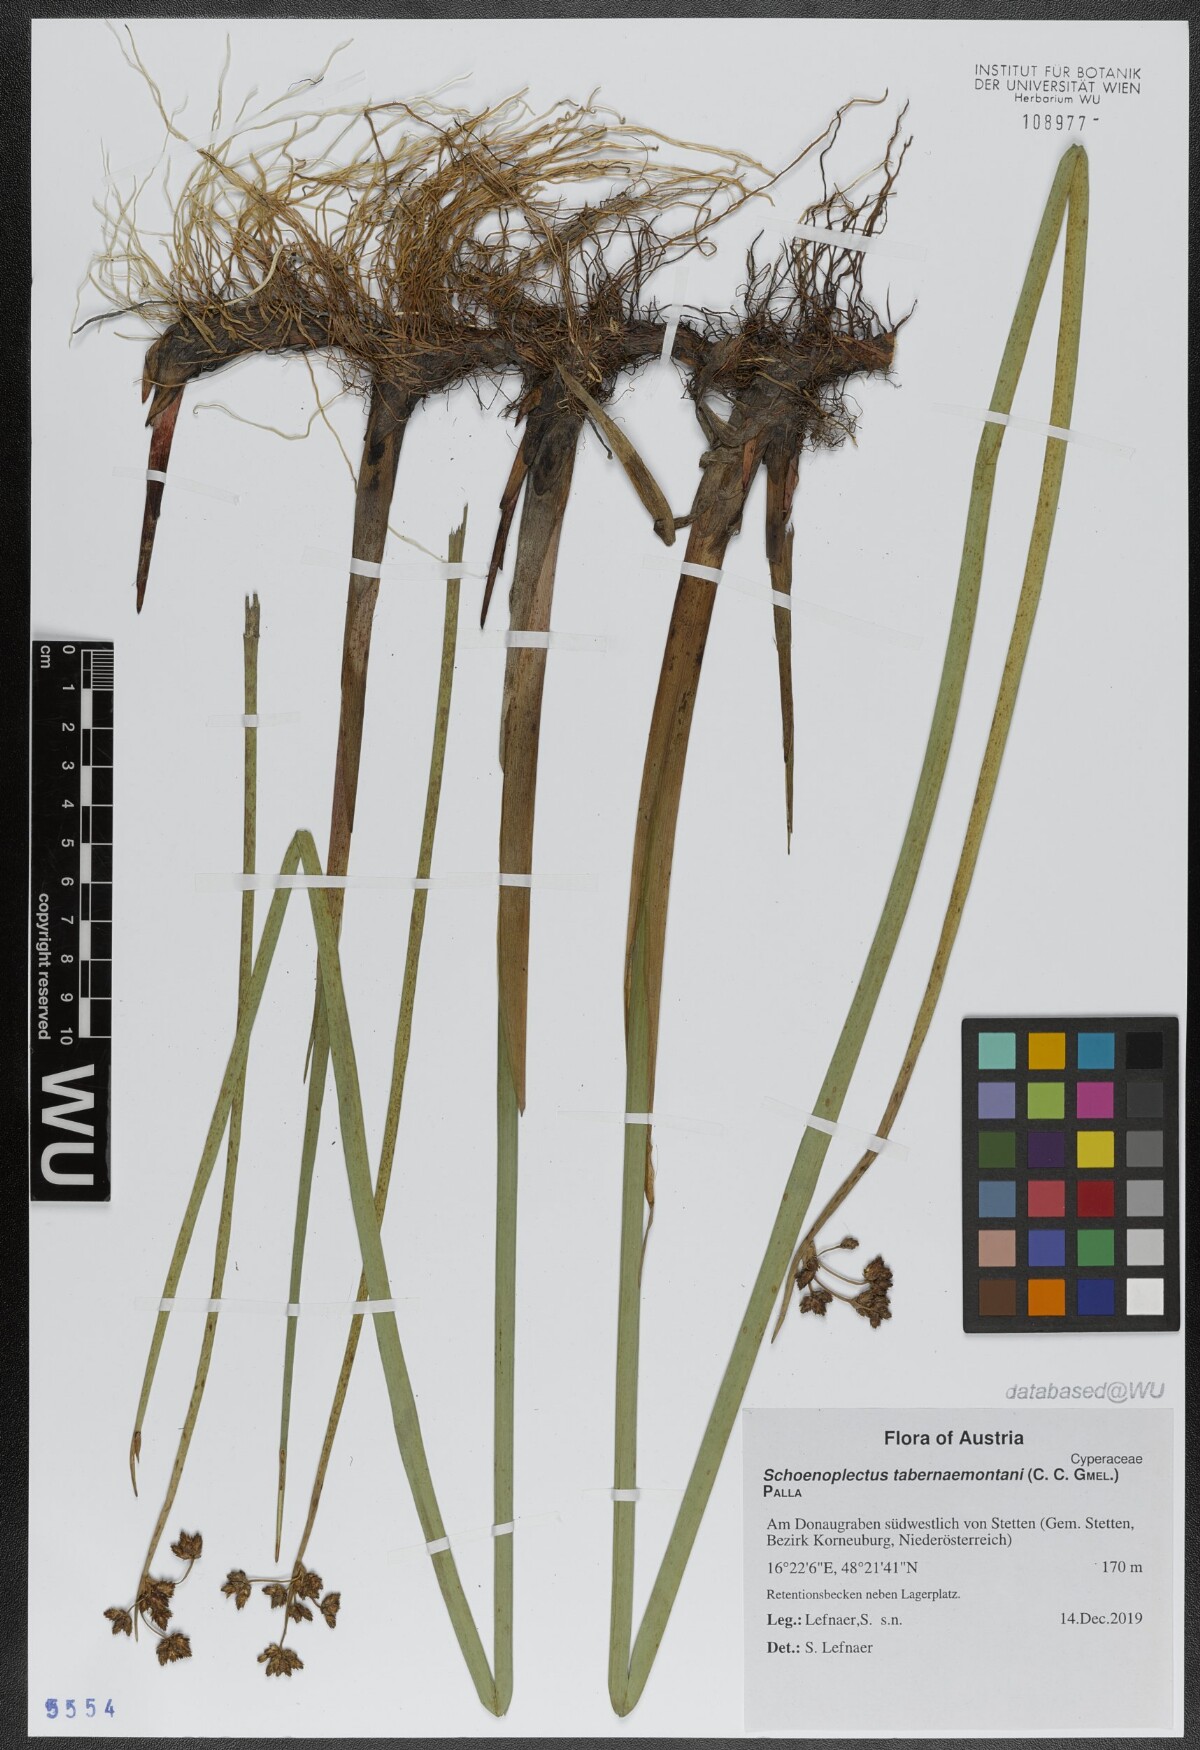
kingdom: Plantae
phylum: Tracheophyta
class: Liliopsida
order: Poales
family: Cyperaceae
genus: Schoenoplectus
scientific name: Schoenoplectus tabernaemontani
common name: Grey club-rush
